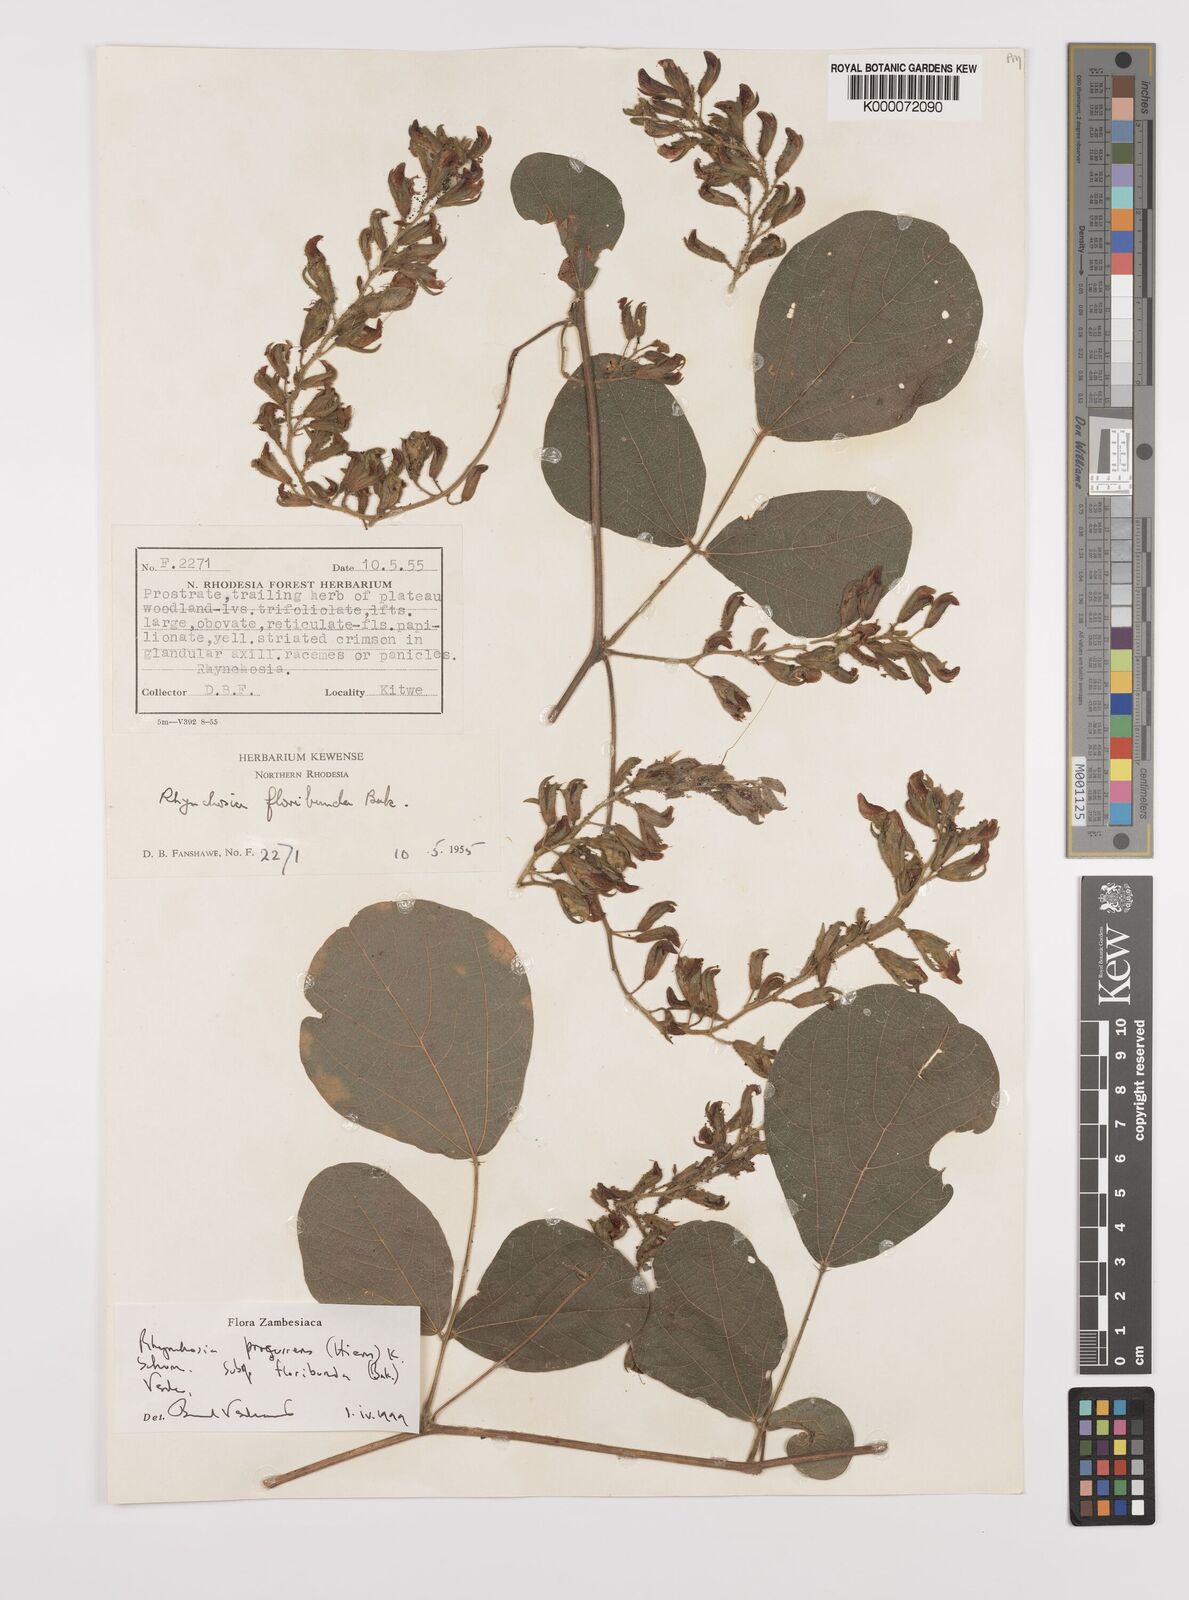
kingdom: Plantae
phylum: Tracheophyta
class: Magnoliopsida
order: Fabales
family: Fabaceae
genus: Rhynchosia
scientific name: Rhynchosia procurrens
